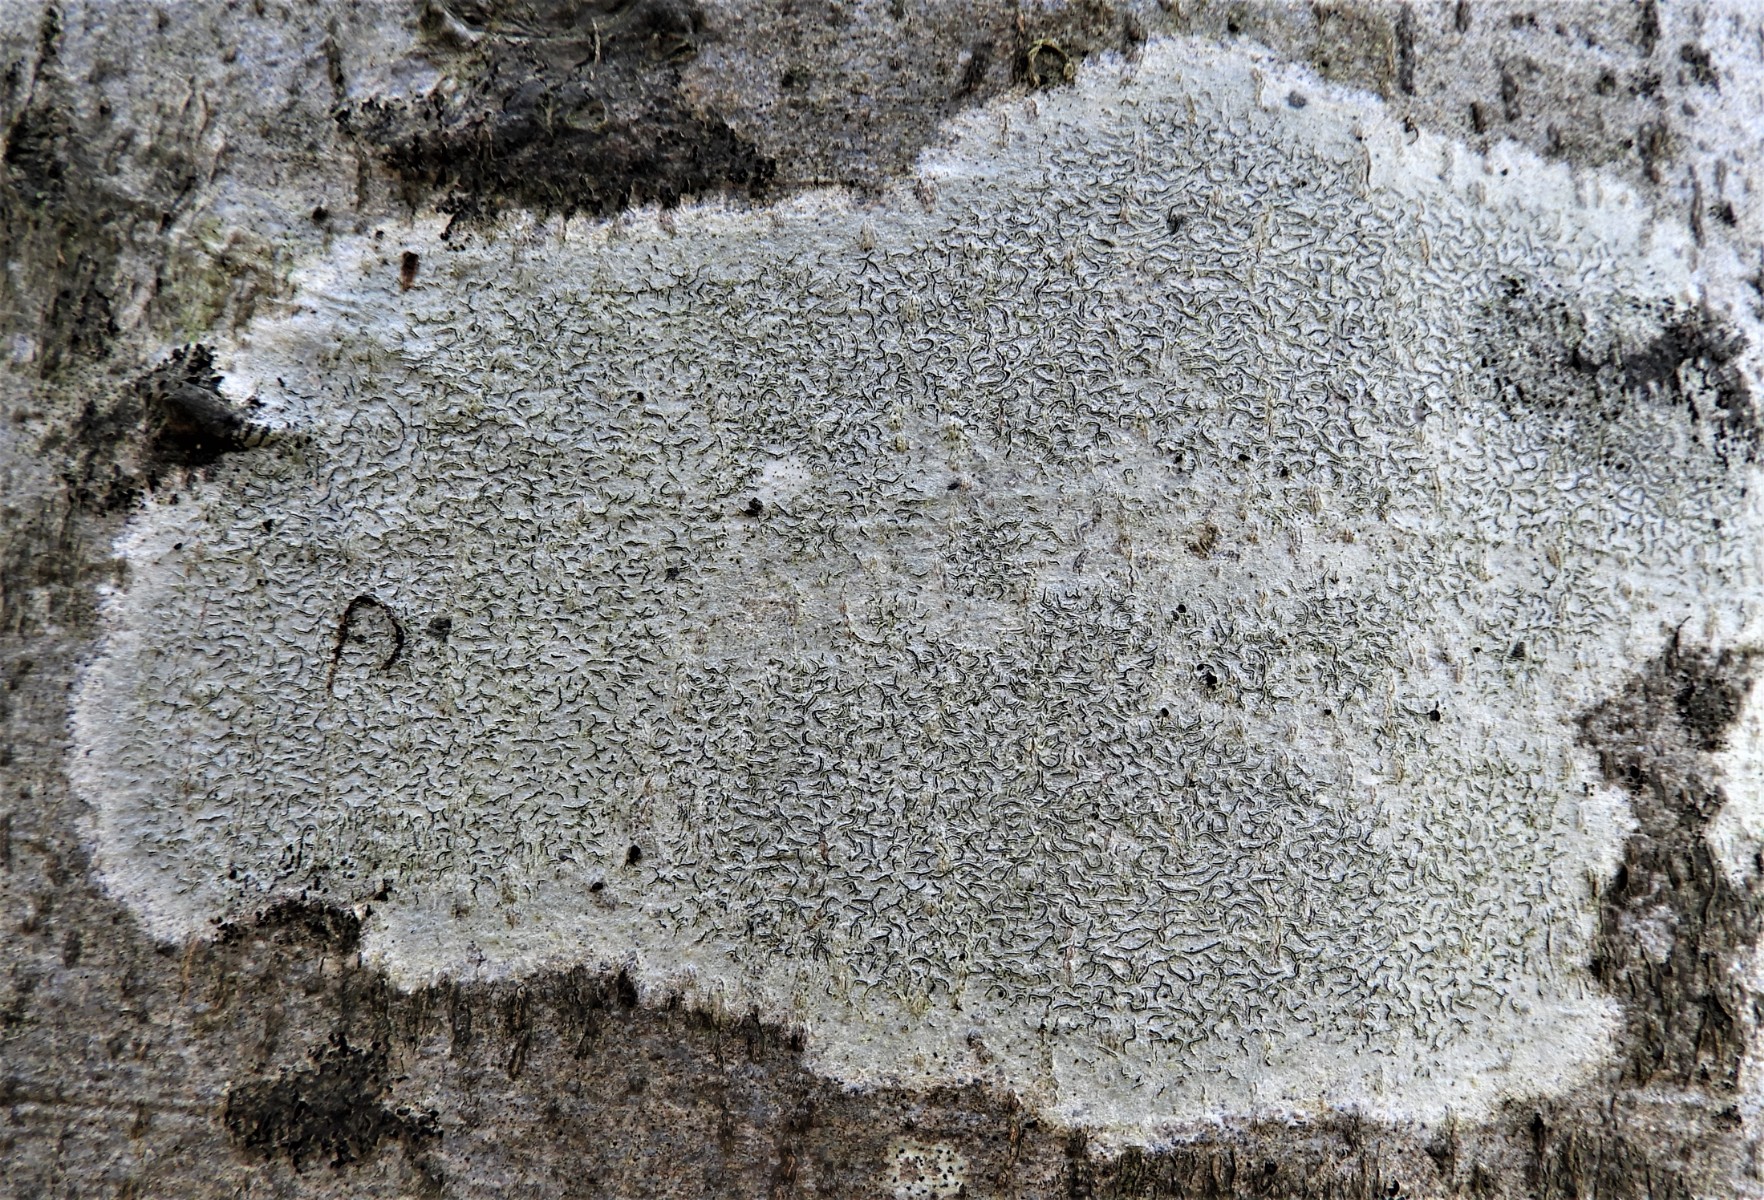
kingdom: Fungi
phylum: Ascomycota
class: Lecanoromycetes
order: Ostropales
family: Graphidaceae
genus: Graphis
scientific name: Graphis scripta
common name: almindelig skriftlav
